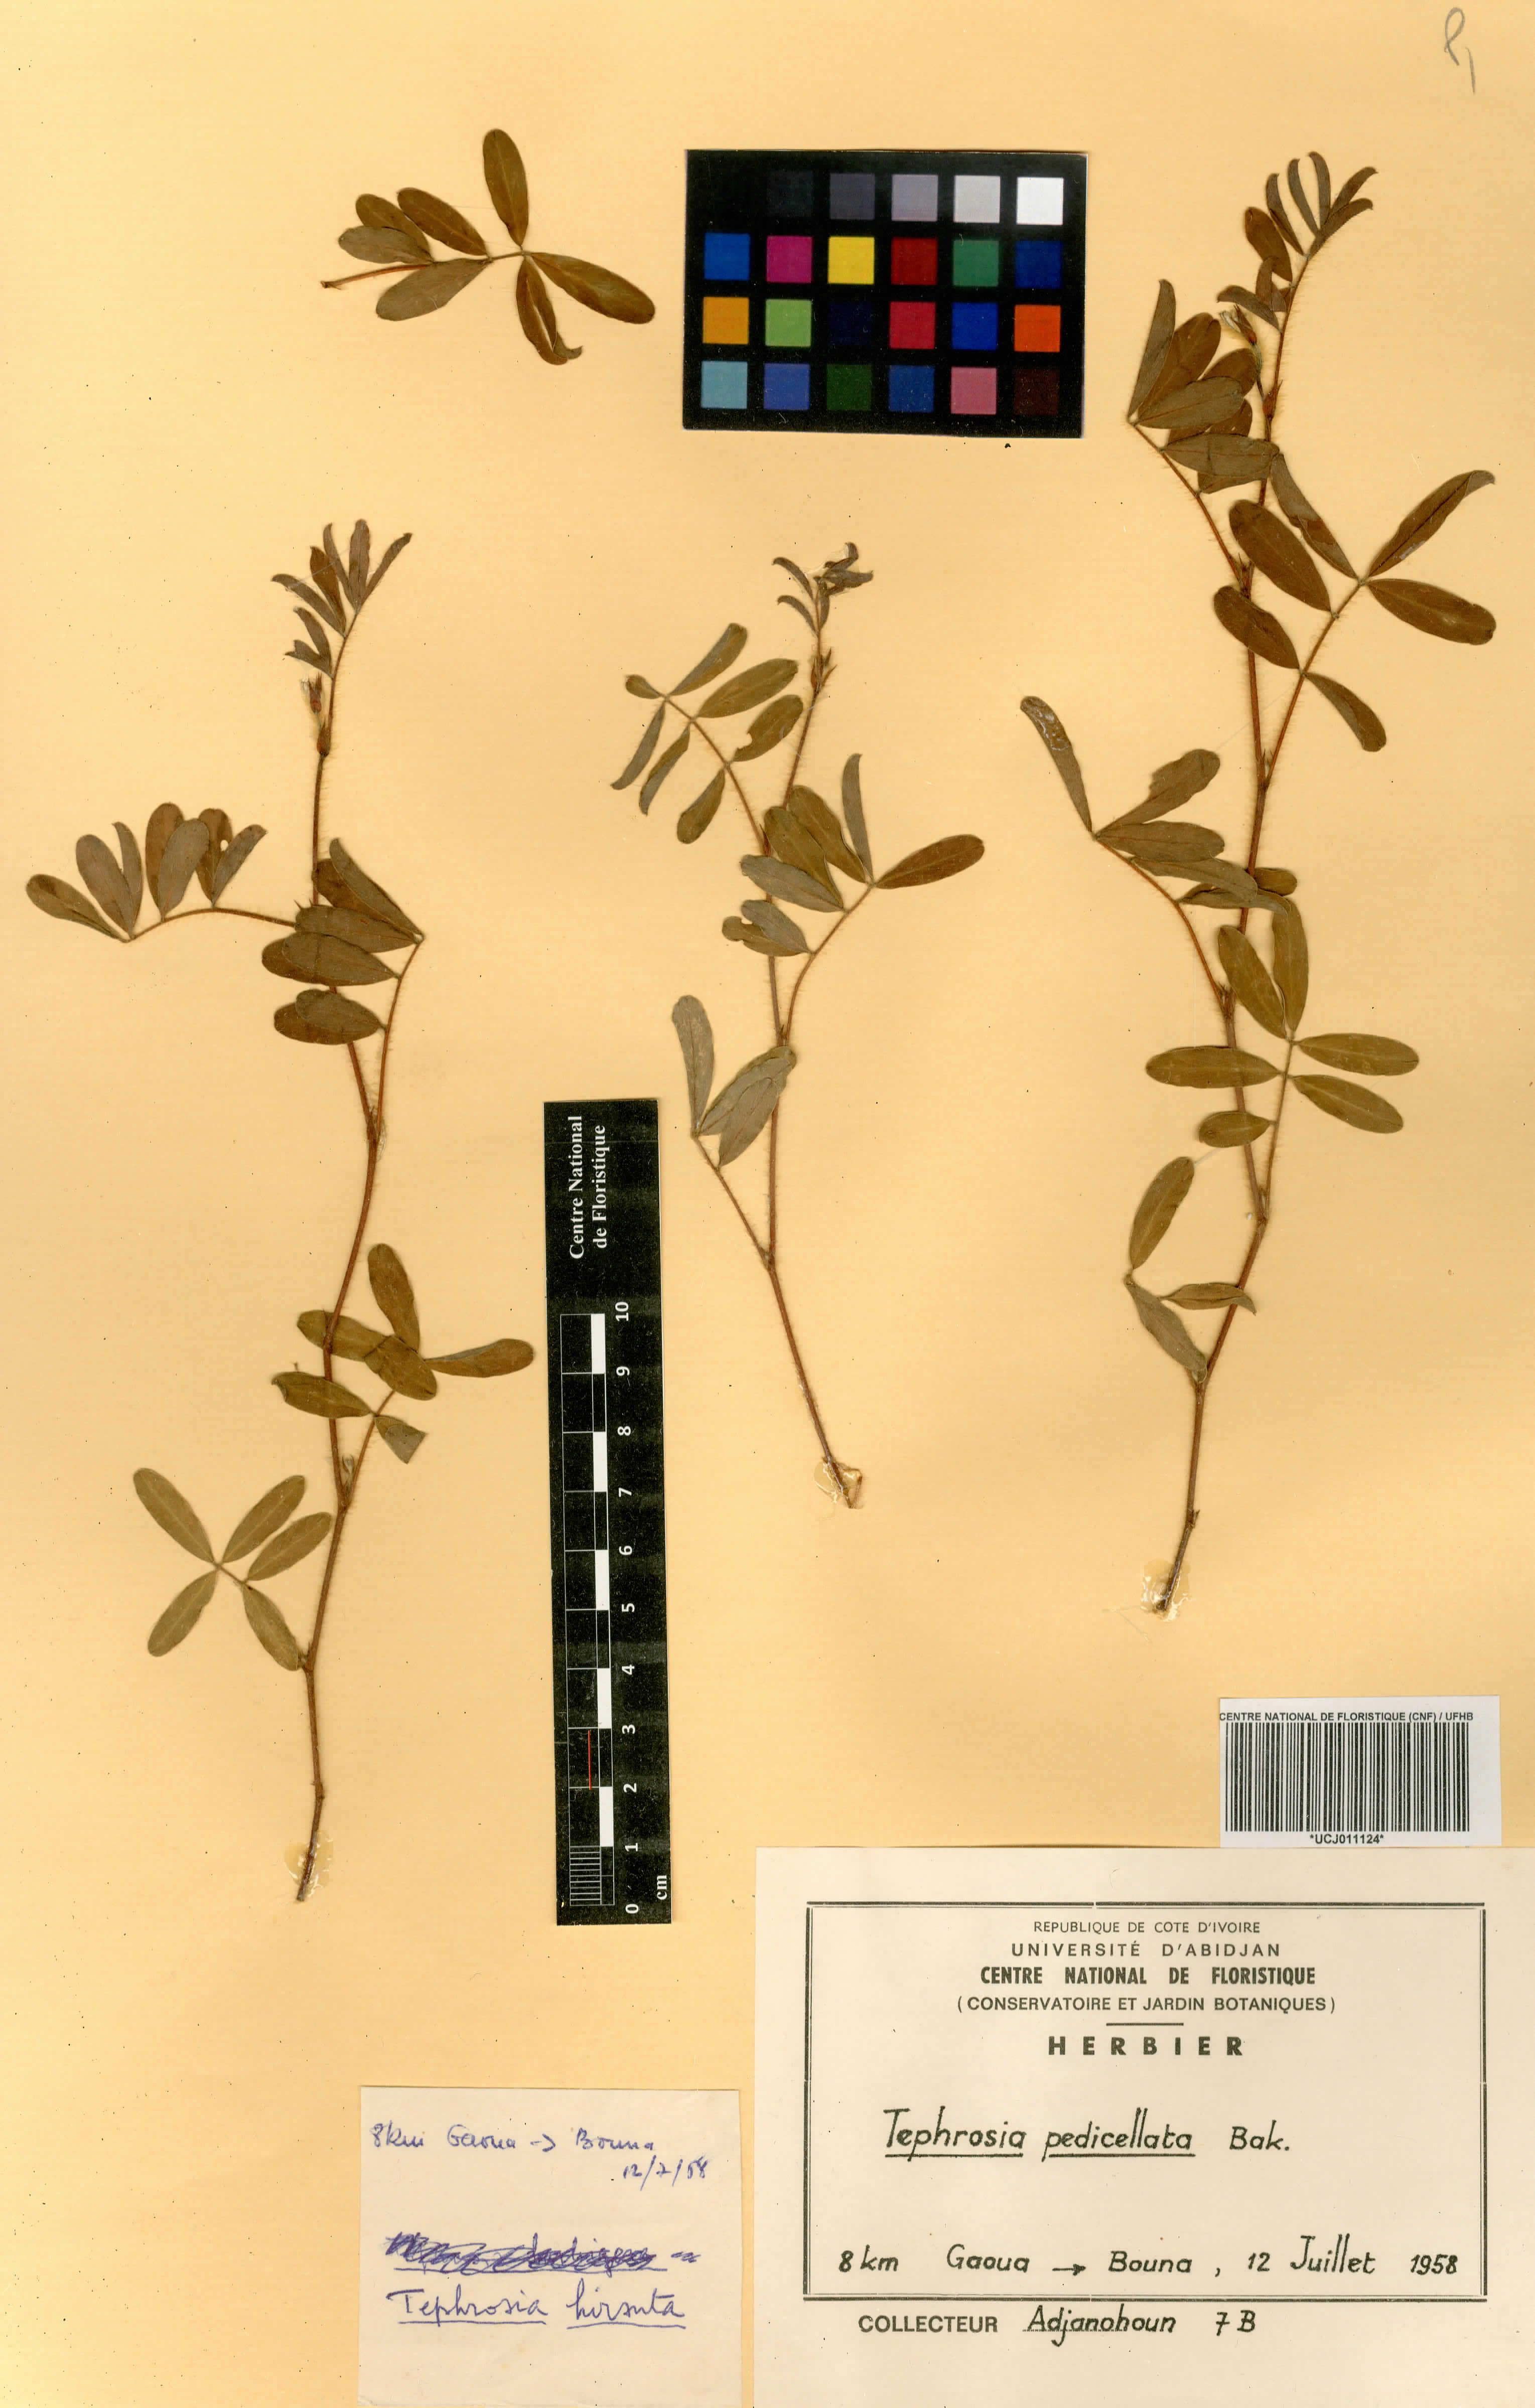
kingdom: Plantae
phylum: Tracheophyta
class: Magnoliopsida
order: Fabales
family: Fabaceae
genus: Tephrosia
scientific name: Tephrosia pedicellata
